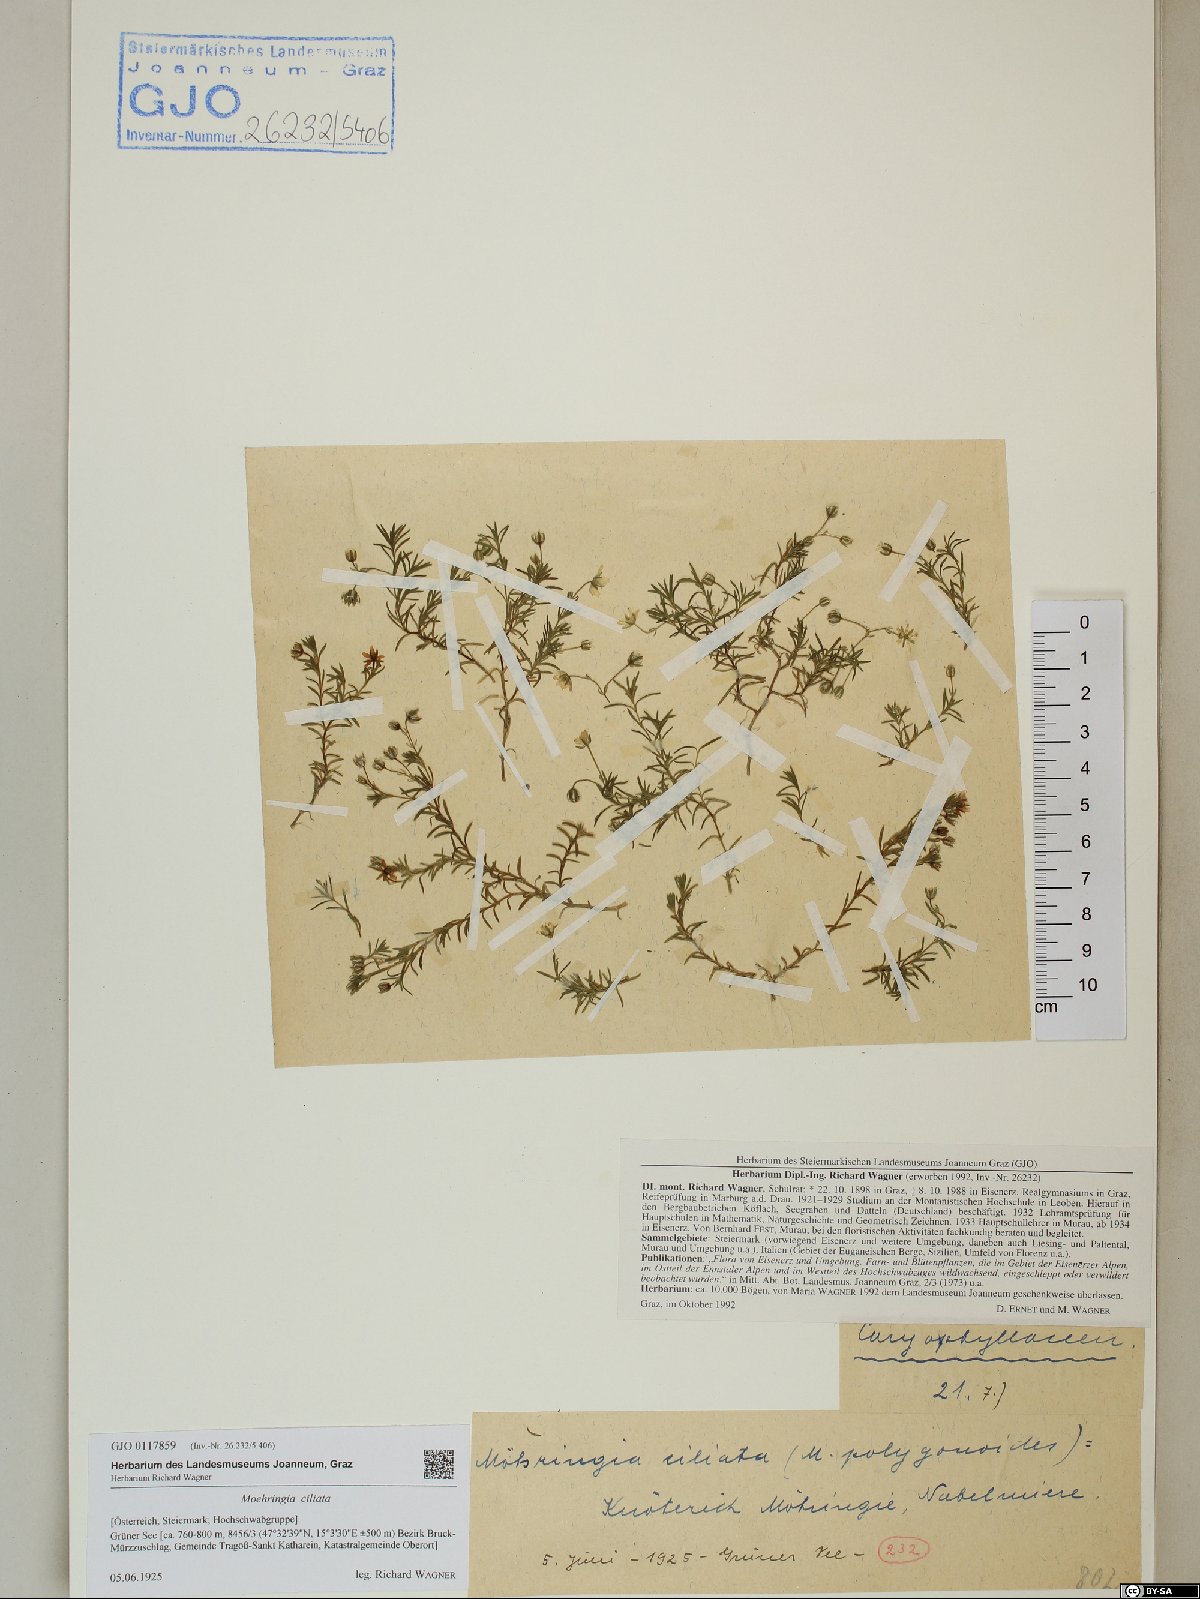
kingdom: Plantae
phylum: Tracheophyta
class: Magnoliopsida
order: Caryophyllales
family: Caryophyllaceae
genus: Moehringia
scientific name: Moehringia ciliata
